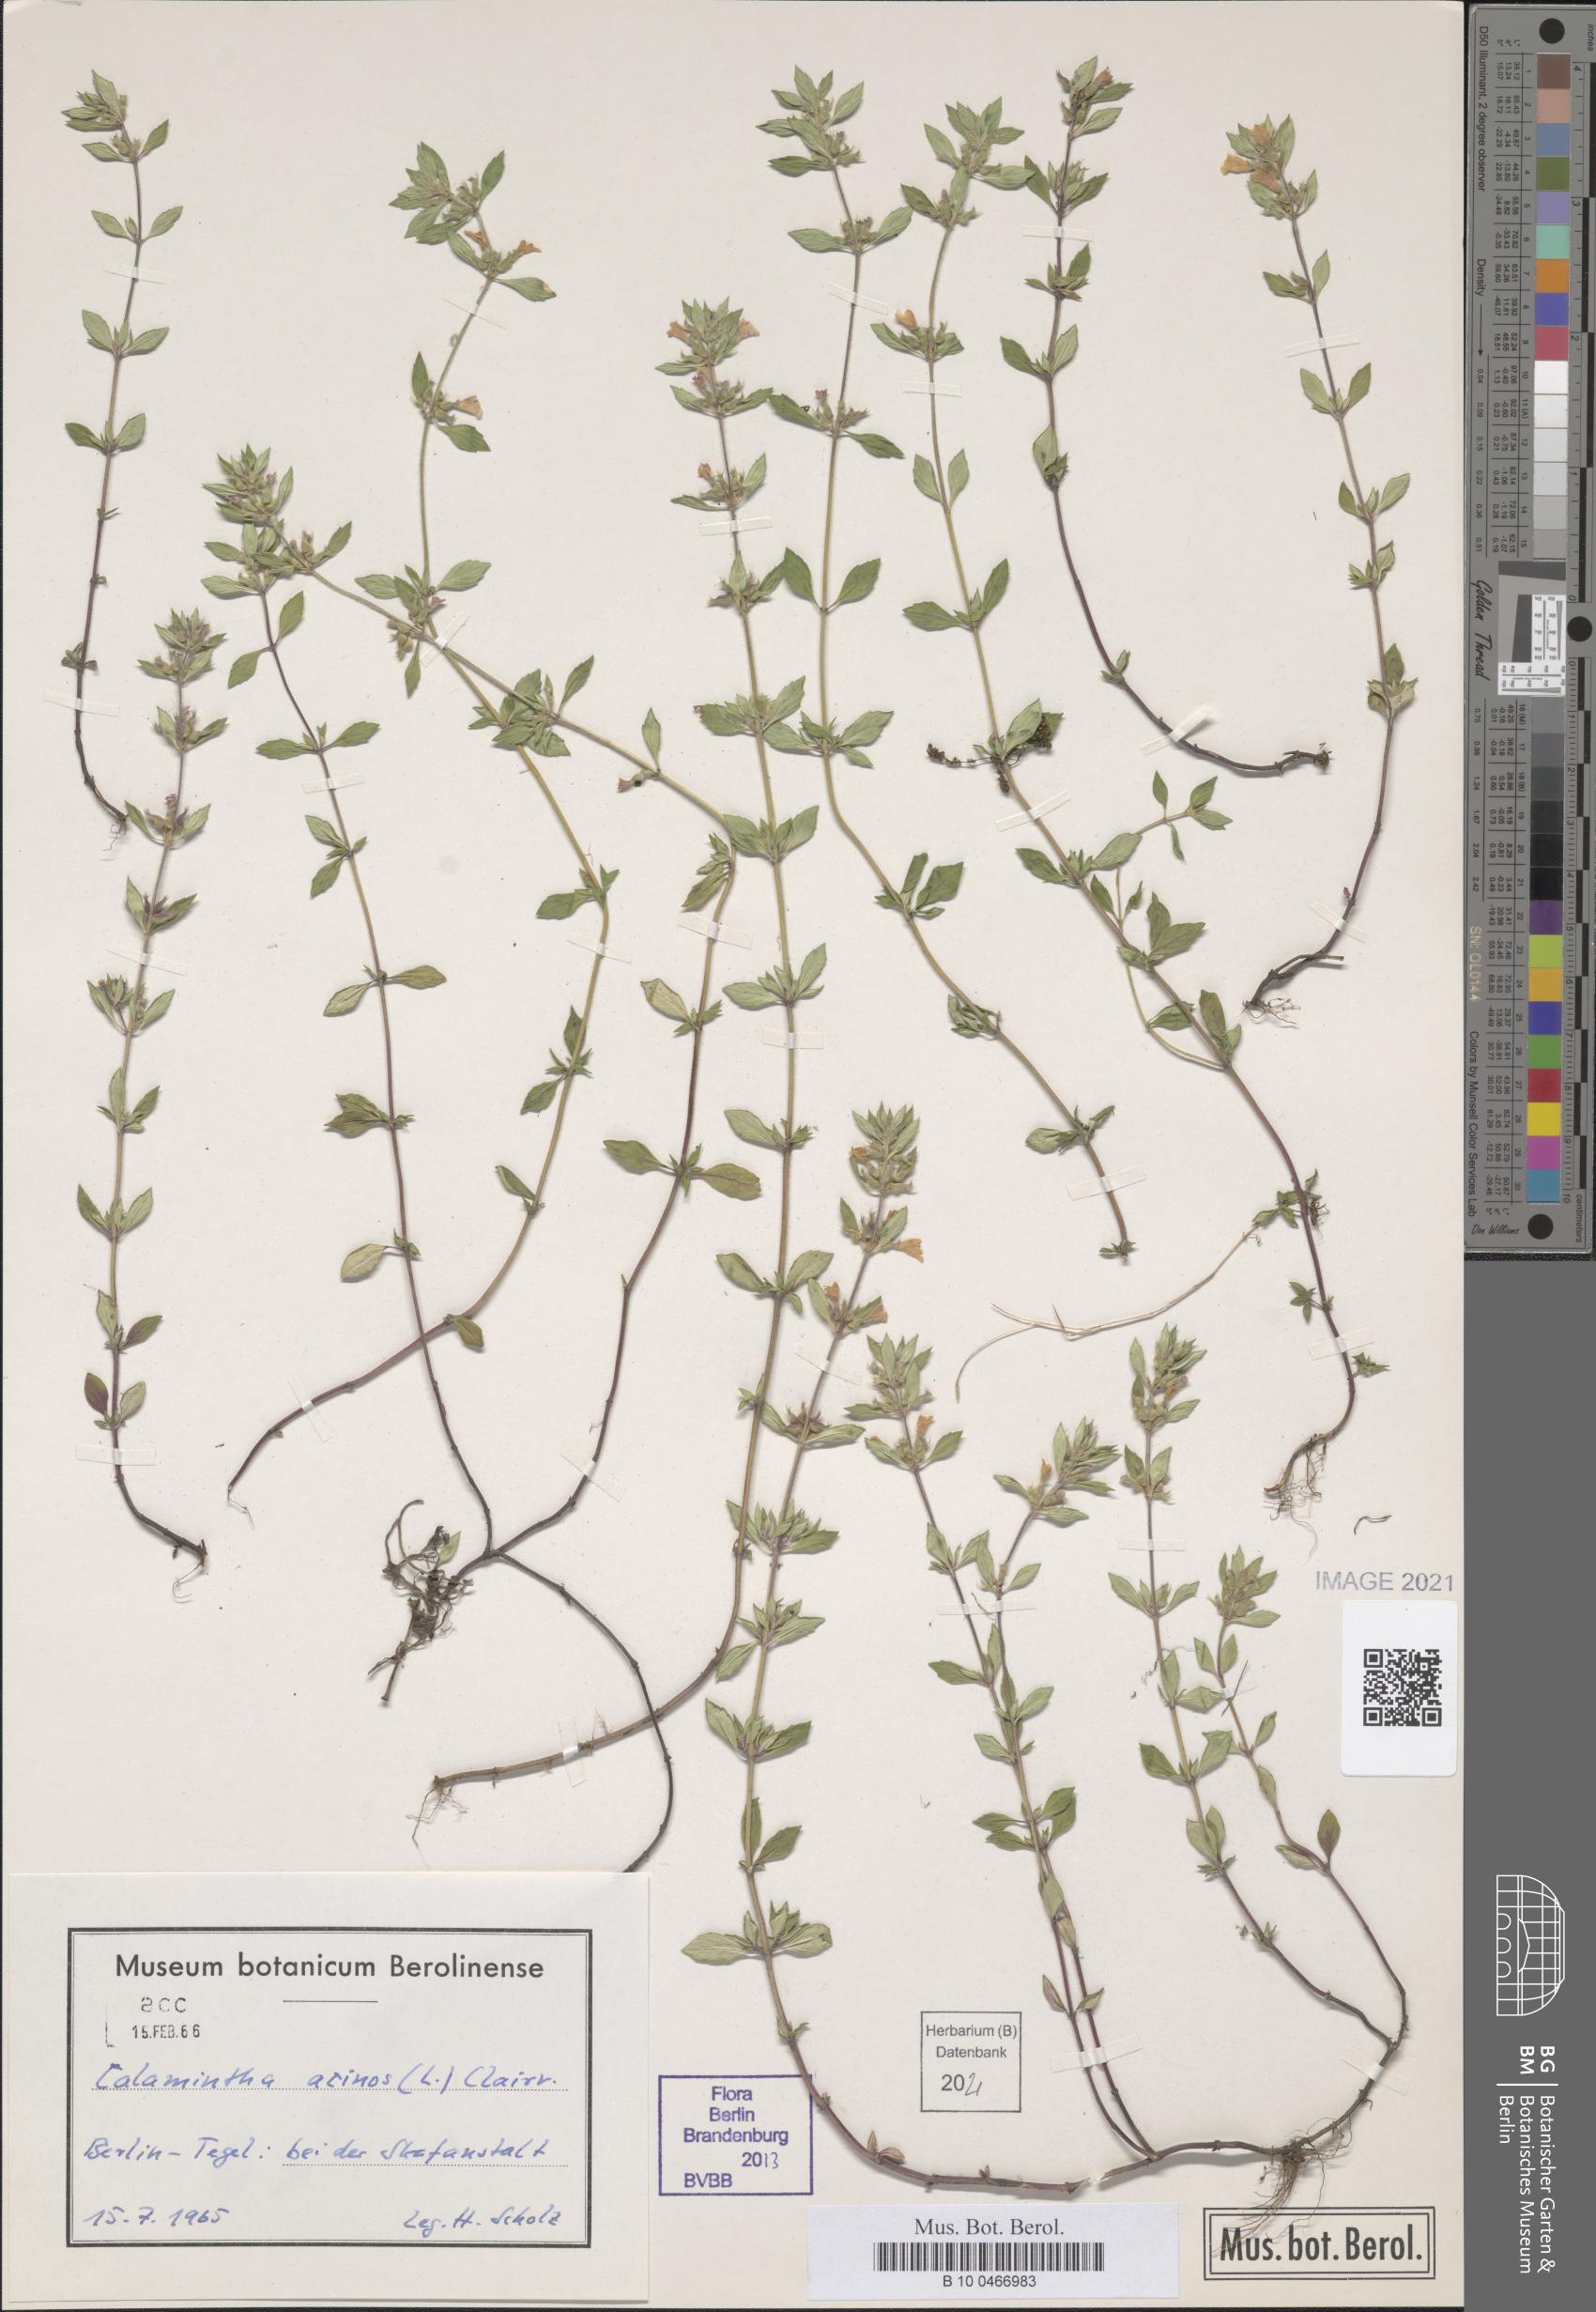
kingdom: Plantae
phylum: Tracheophyta
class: Magnoliopsida
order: Lamiales
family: Lamiaceae
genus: Clinopodium
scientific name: Clinopodium acinos
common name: Basil thyme
